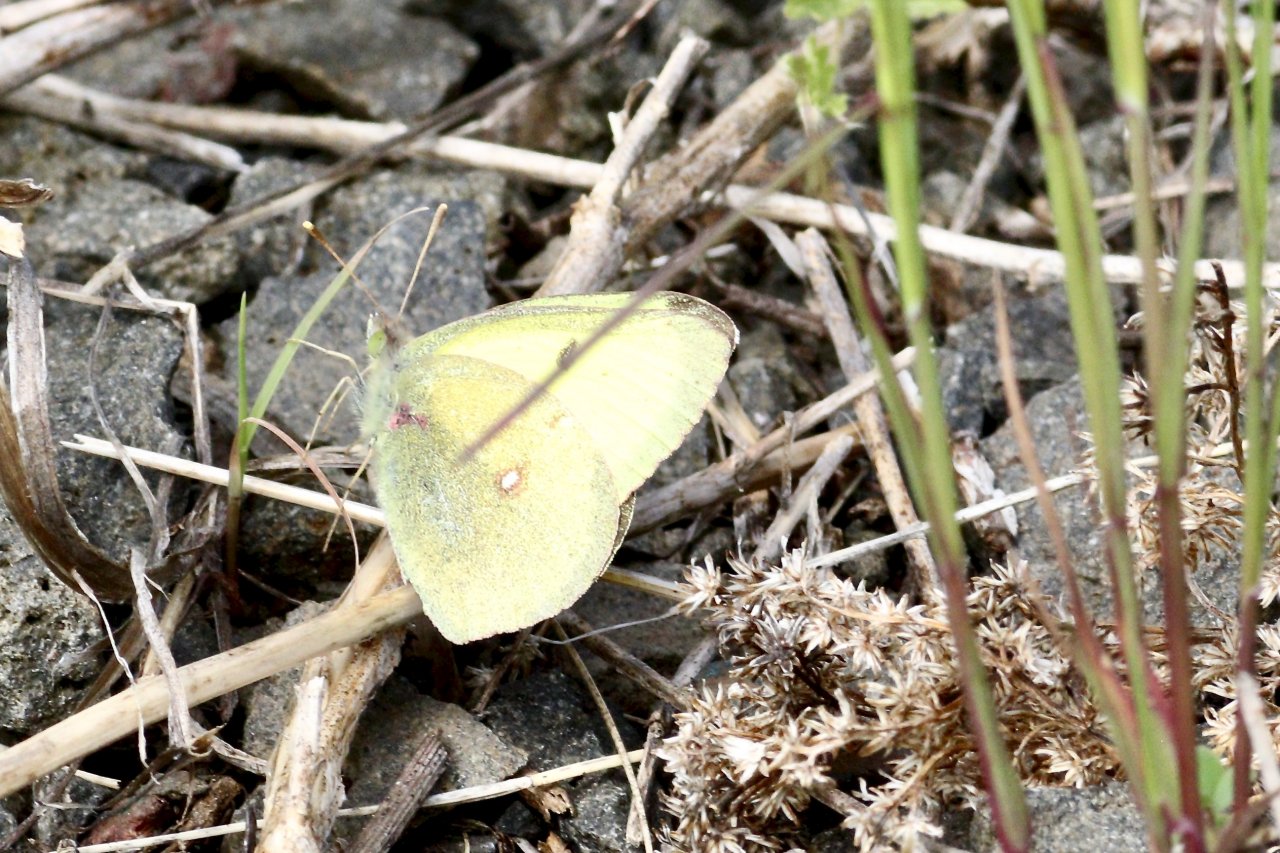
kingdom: Animalia
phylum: Arthropoda
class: Insecta
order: Lepidoptera
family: Pieridae
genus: Colias
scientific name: Colias philodice
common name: Clouded Sulphur
